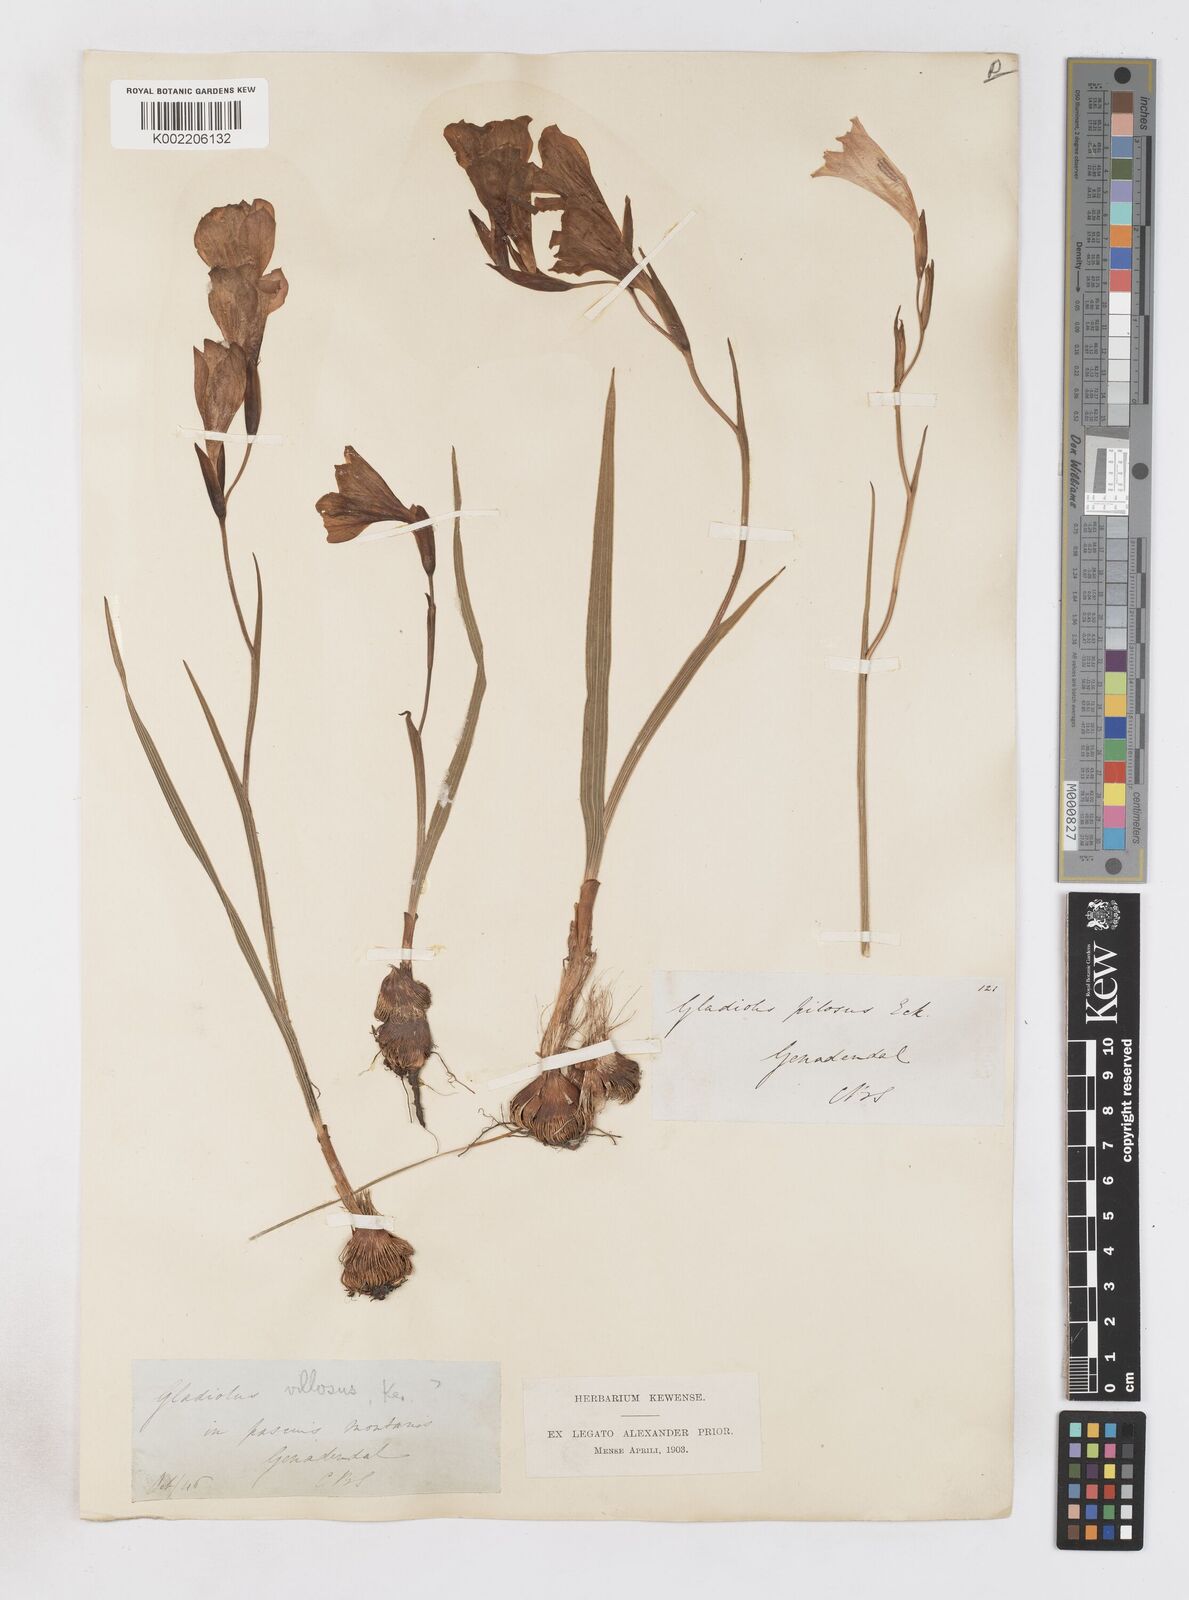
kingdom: Plantae
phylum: Tracheophyta
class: Liliopsida
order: Asparagales
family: Iridaceae
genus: Gladiolus
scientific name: Gladiolus hirsutus
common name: Small pink afrikaner
